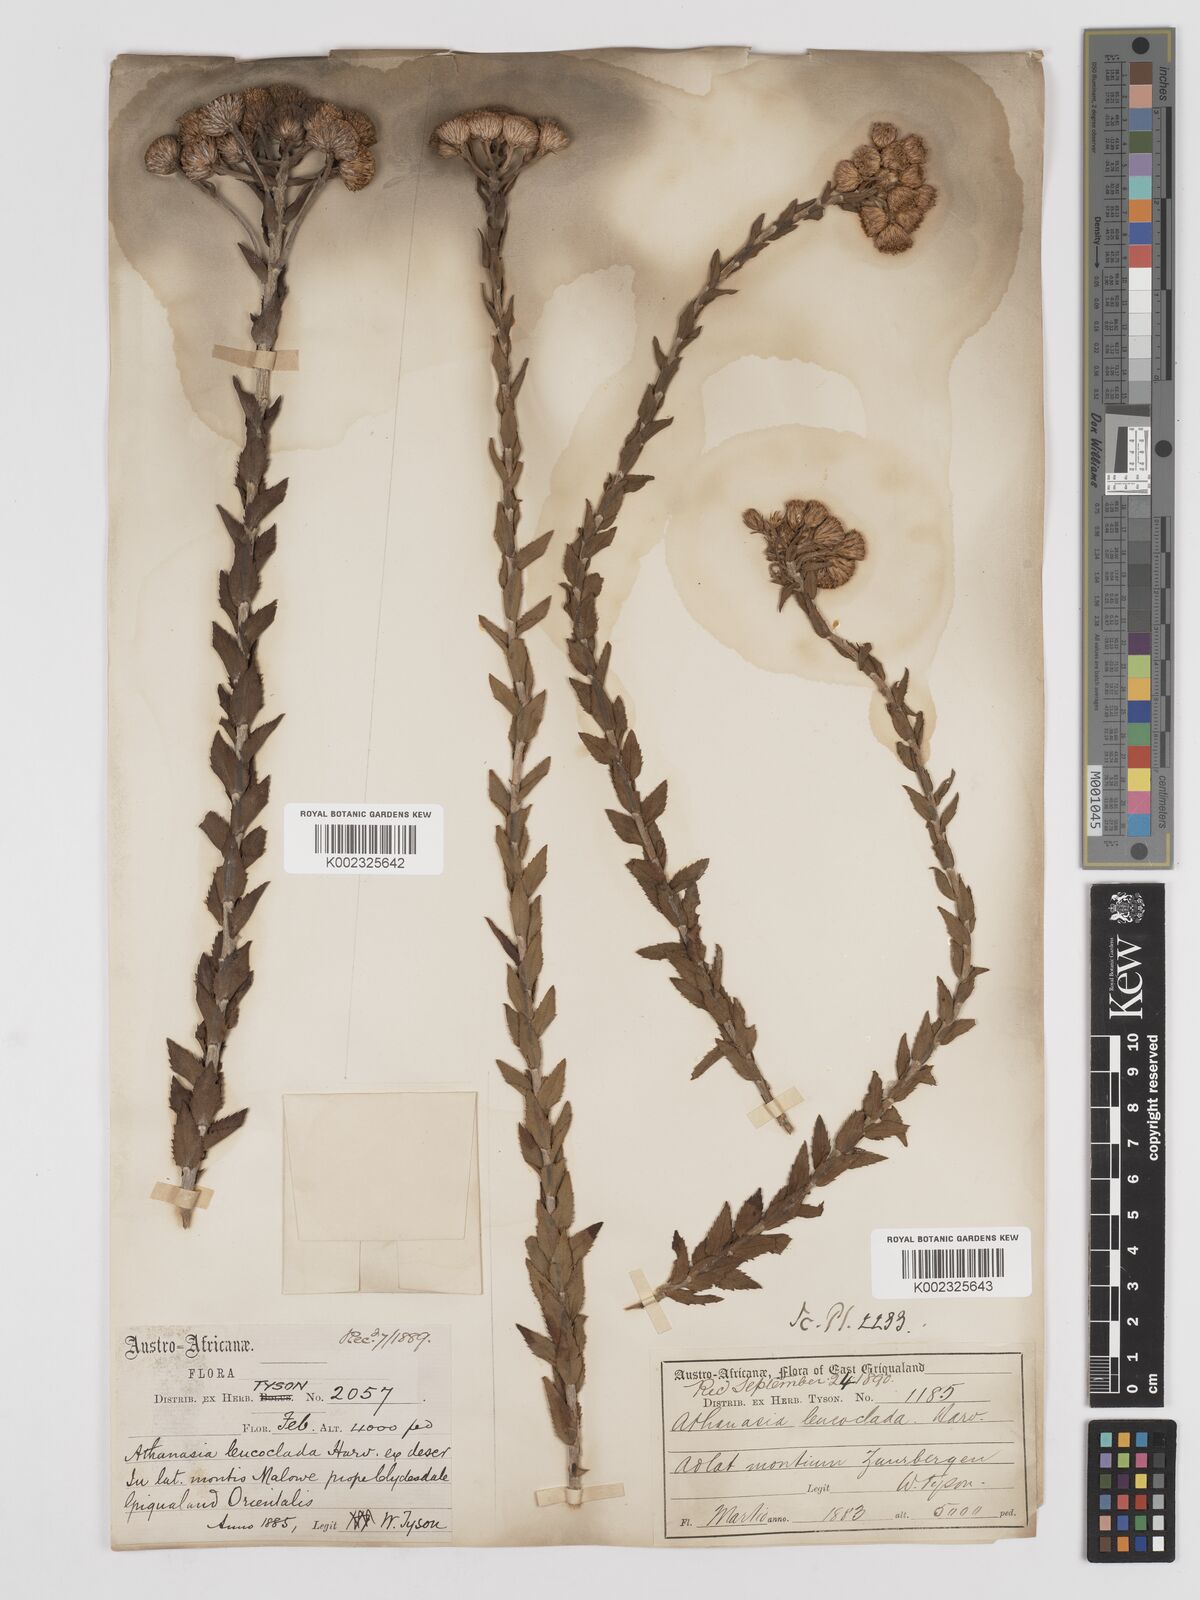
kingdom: Plantae
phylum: Tracheophyta
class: Magnoliopsida
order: Asterales
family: Asteraceae
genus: Inulanthera
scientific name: Inulanthera leucoclada
